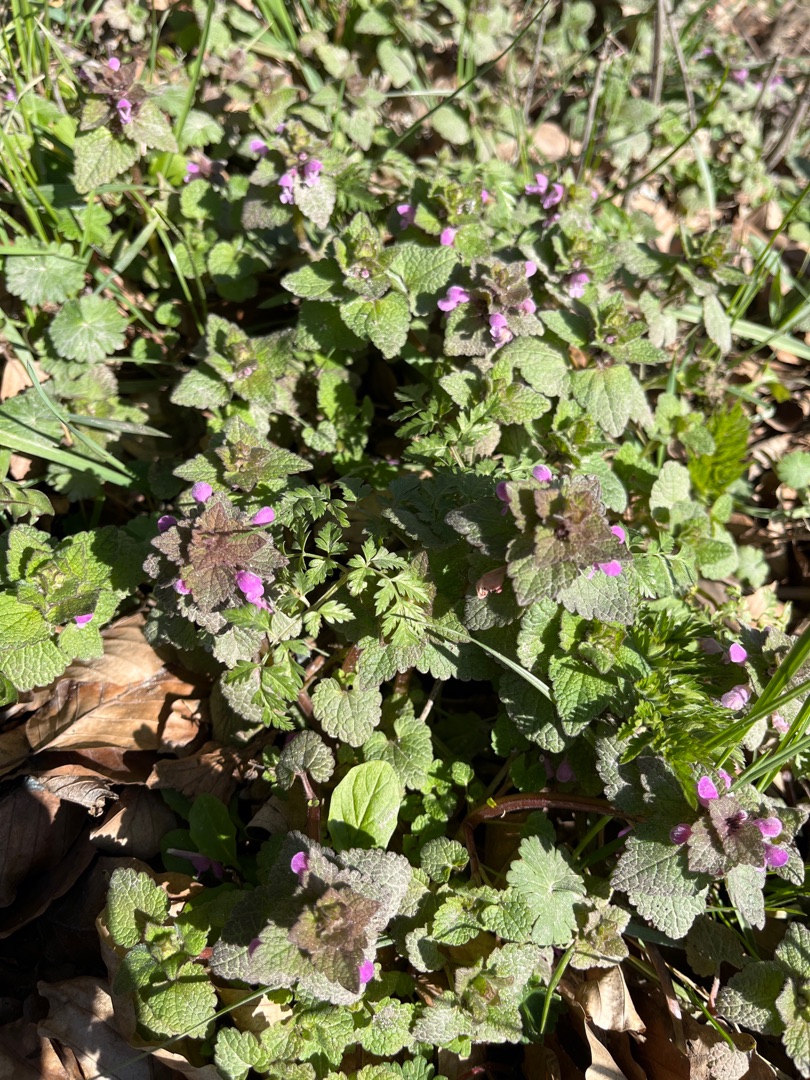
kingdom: Plantae
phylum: Tracheophyta
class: Magnoliopsida
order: Lamiales
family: Lamiaceae
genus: Lamium
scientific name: Lamium purpureum
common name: Rød tvetand
